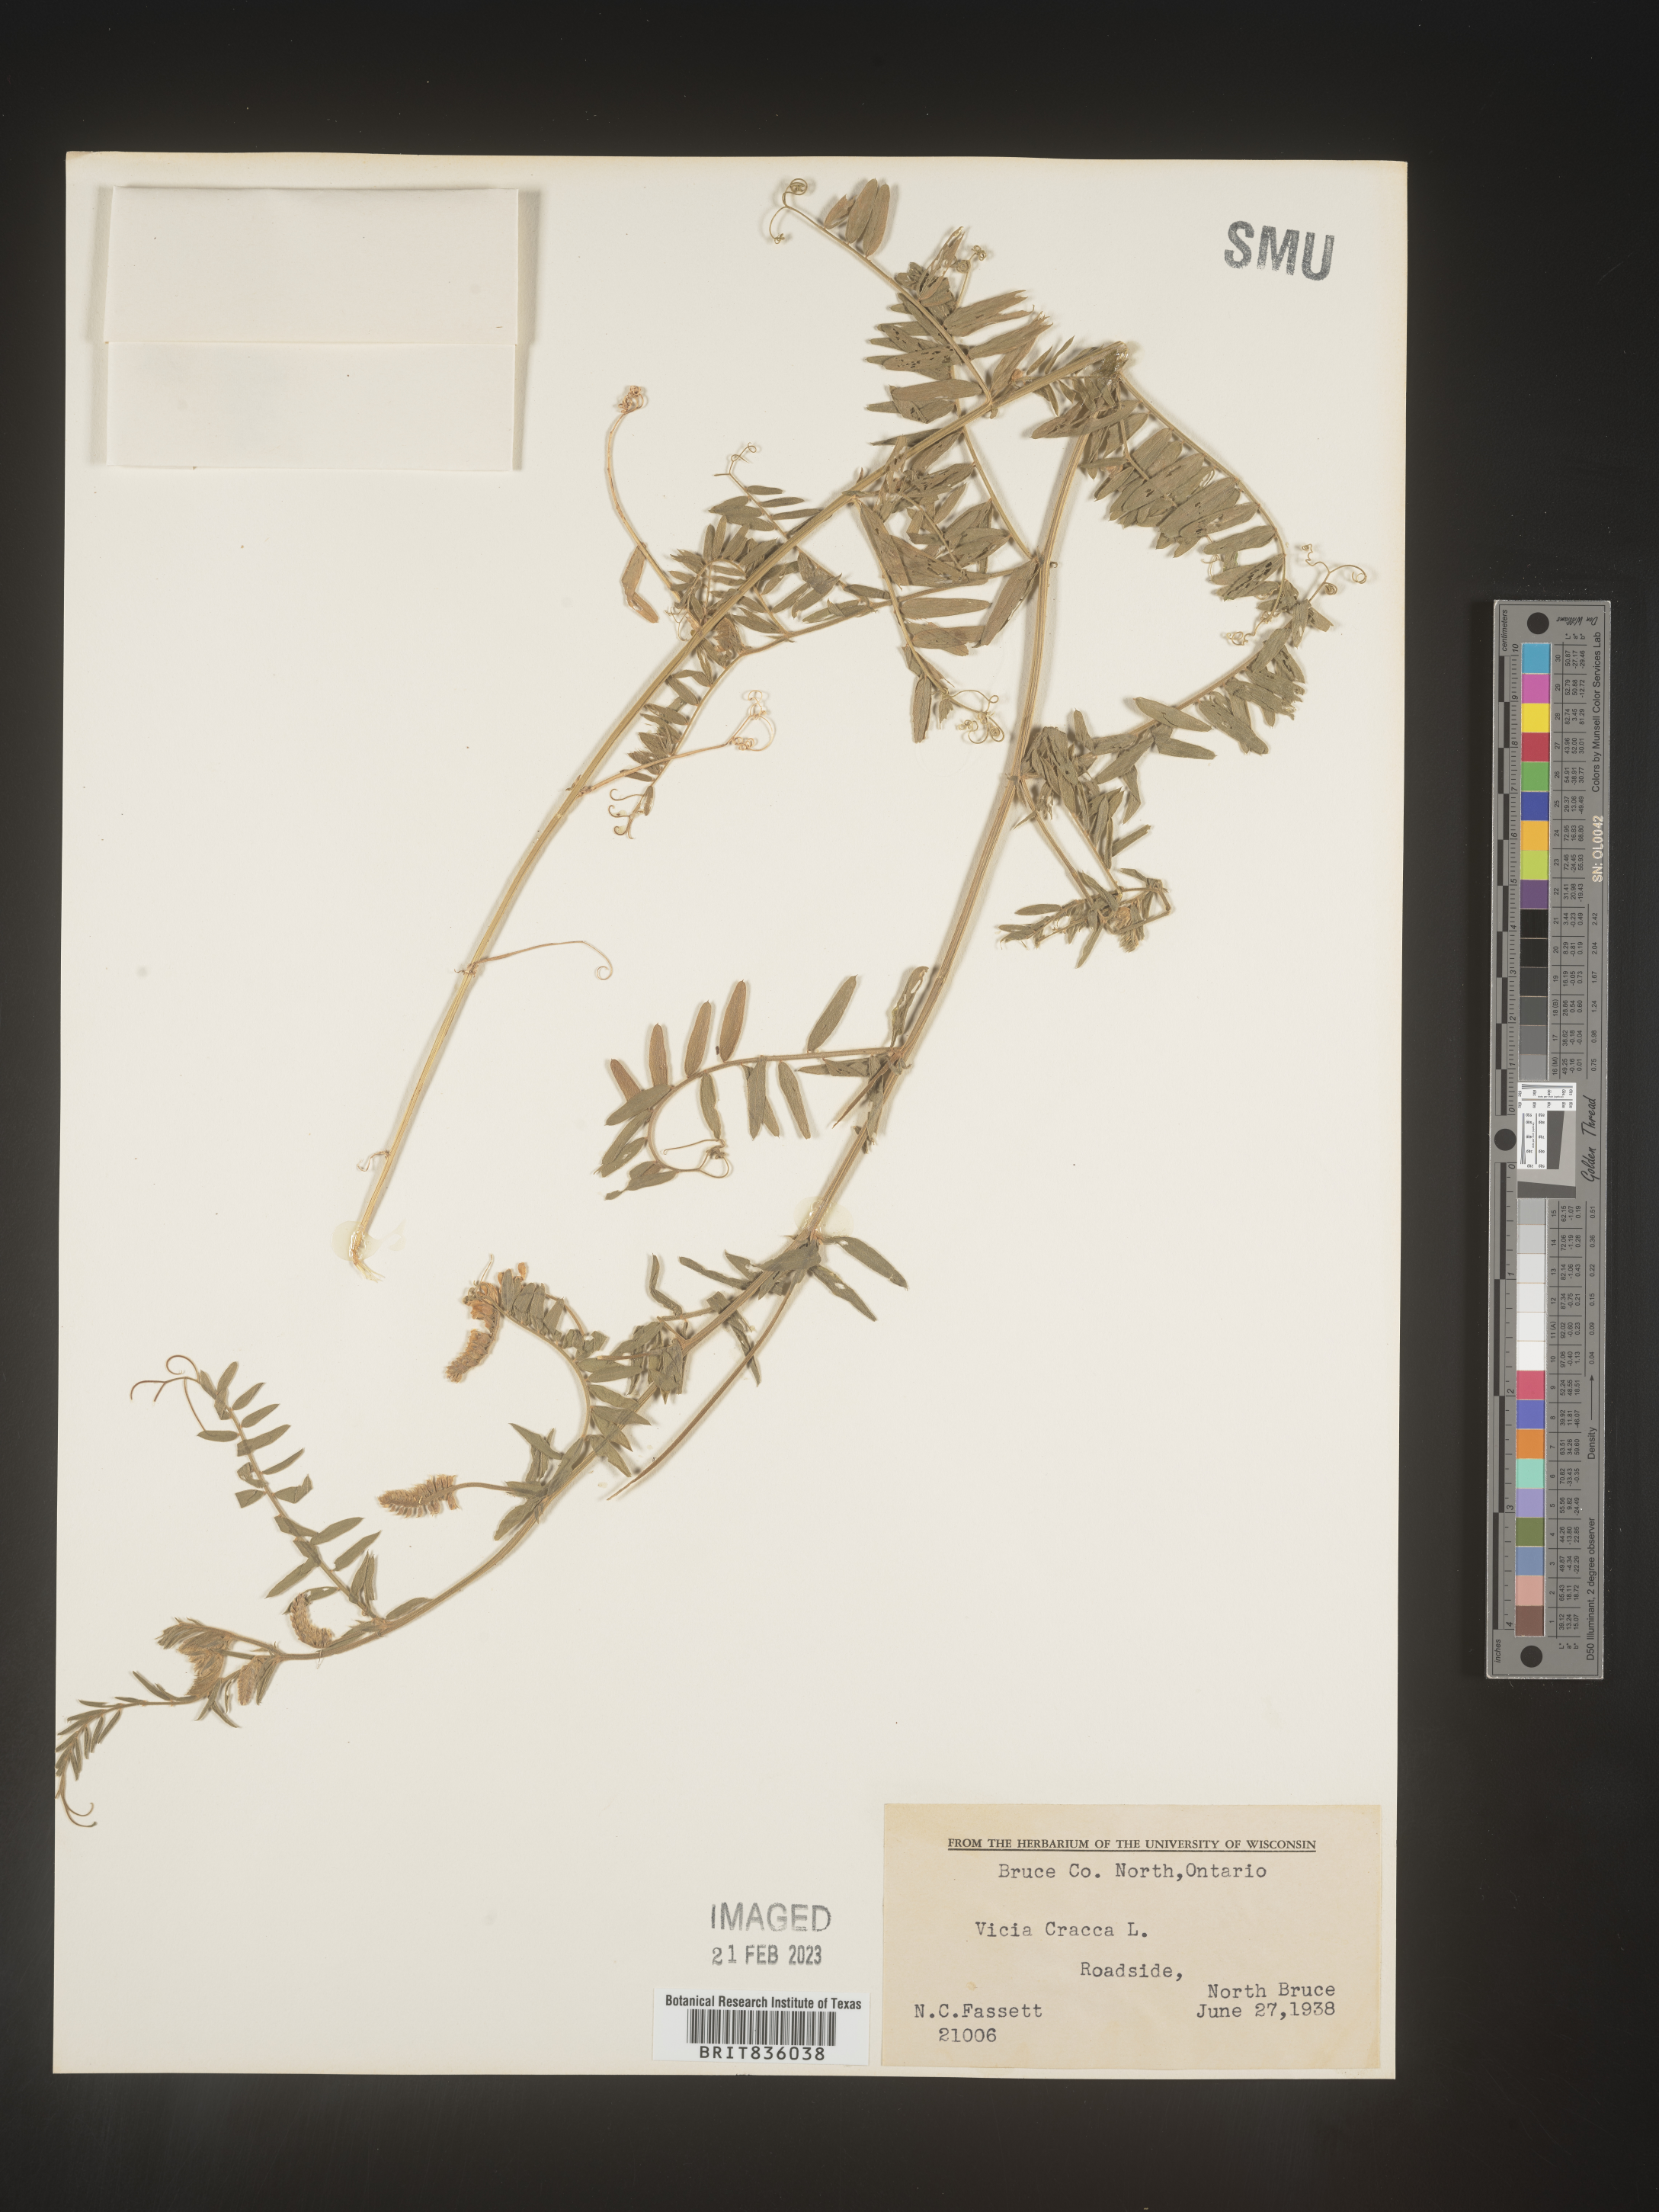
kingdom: Plantae
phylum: Tracheophyta
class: Magnoliopsida
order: Fabales
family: Fabaceae
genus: Vicia
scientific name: Vicia tetrasperma
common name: Smooth tare
